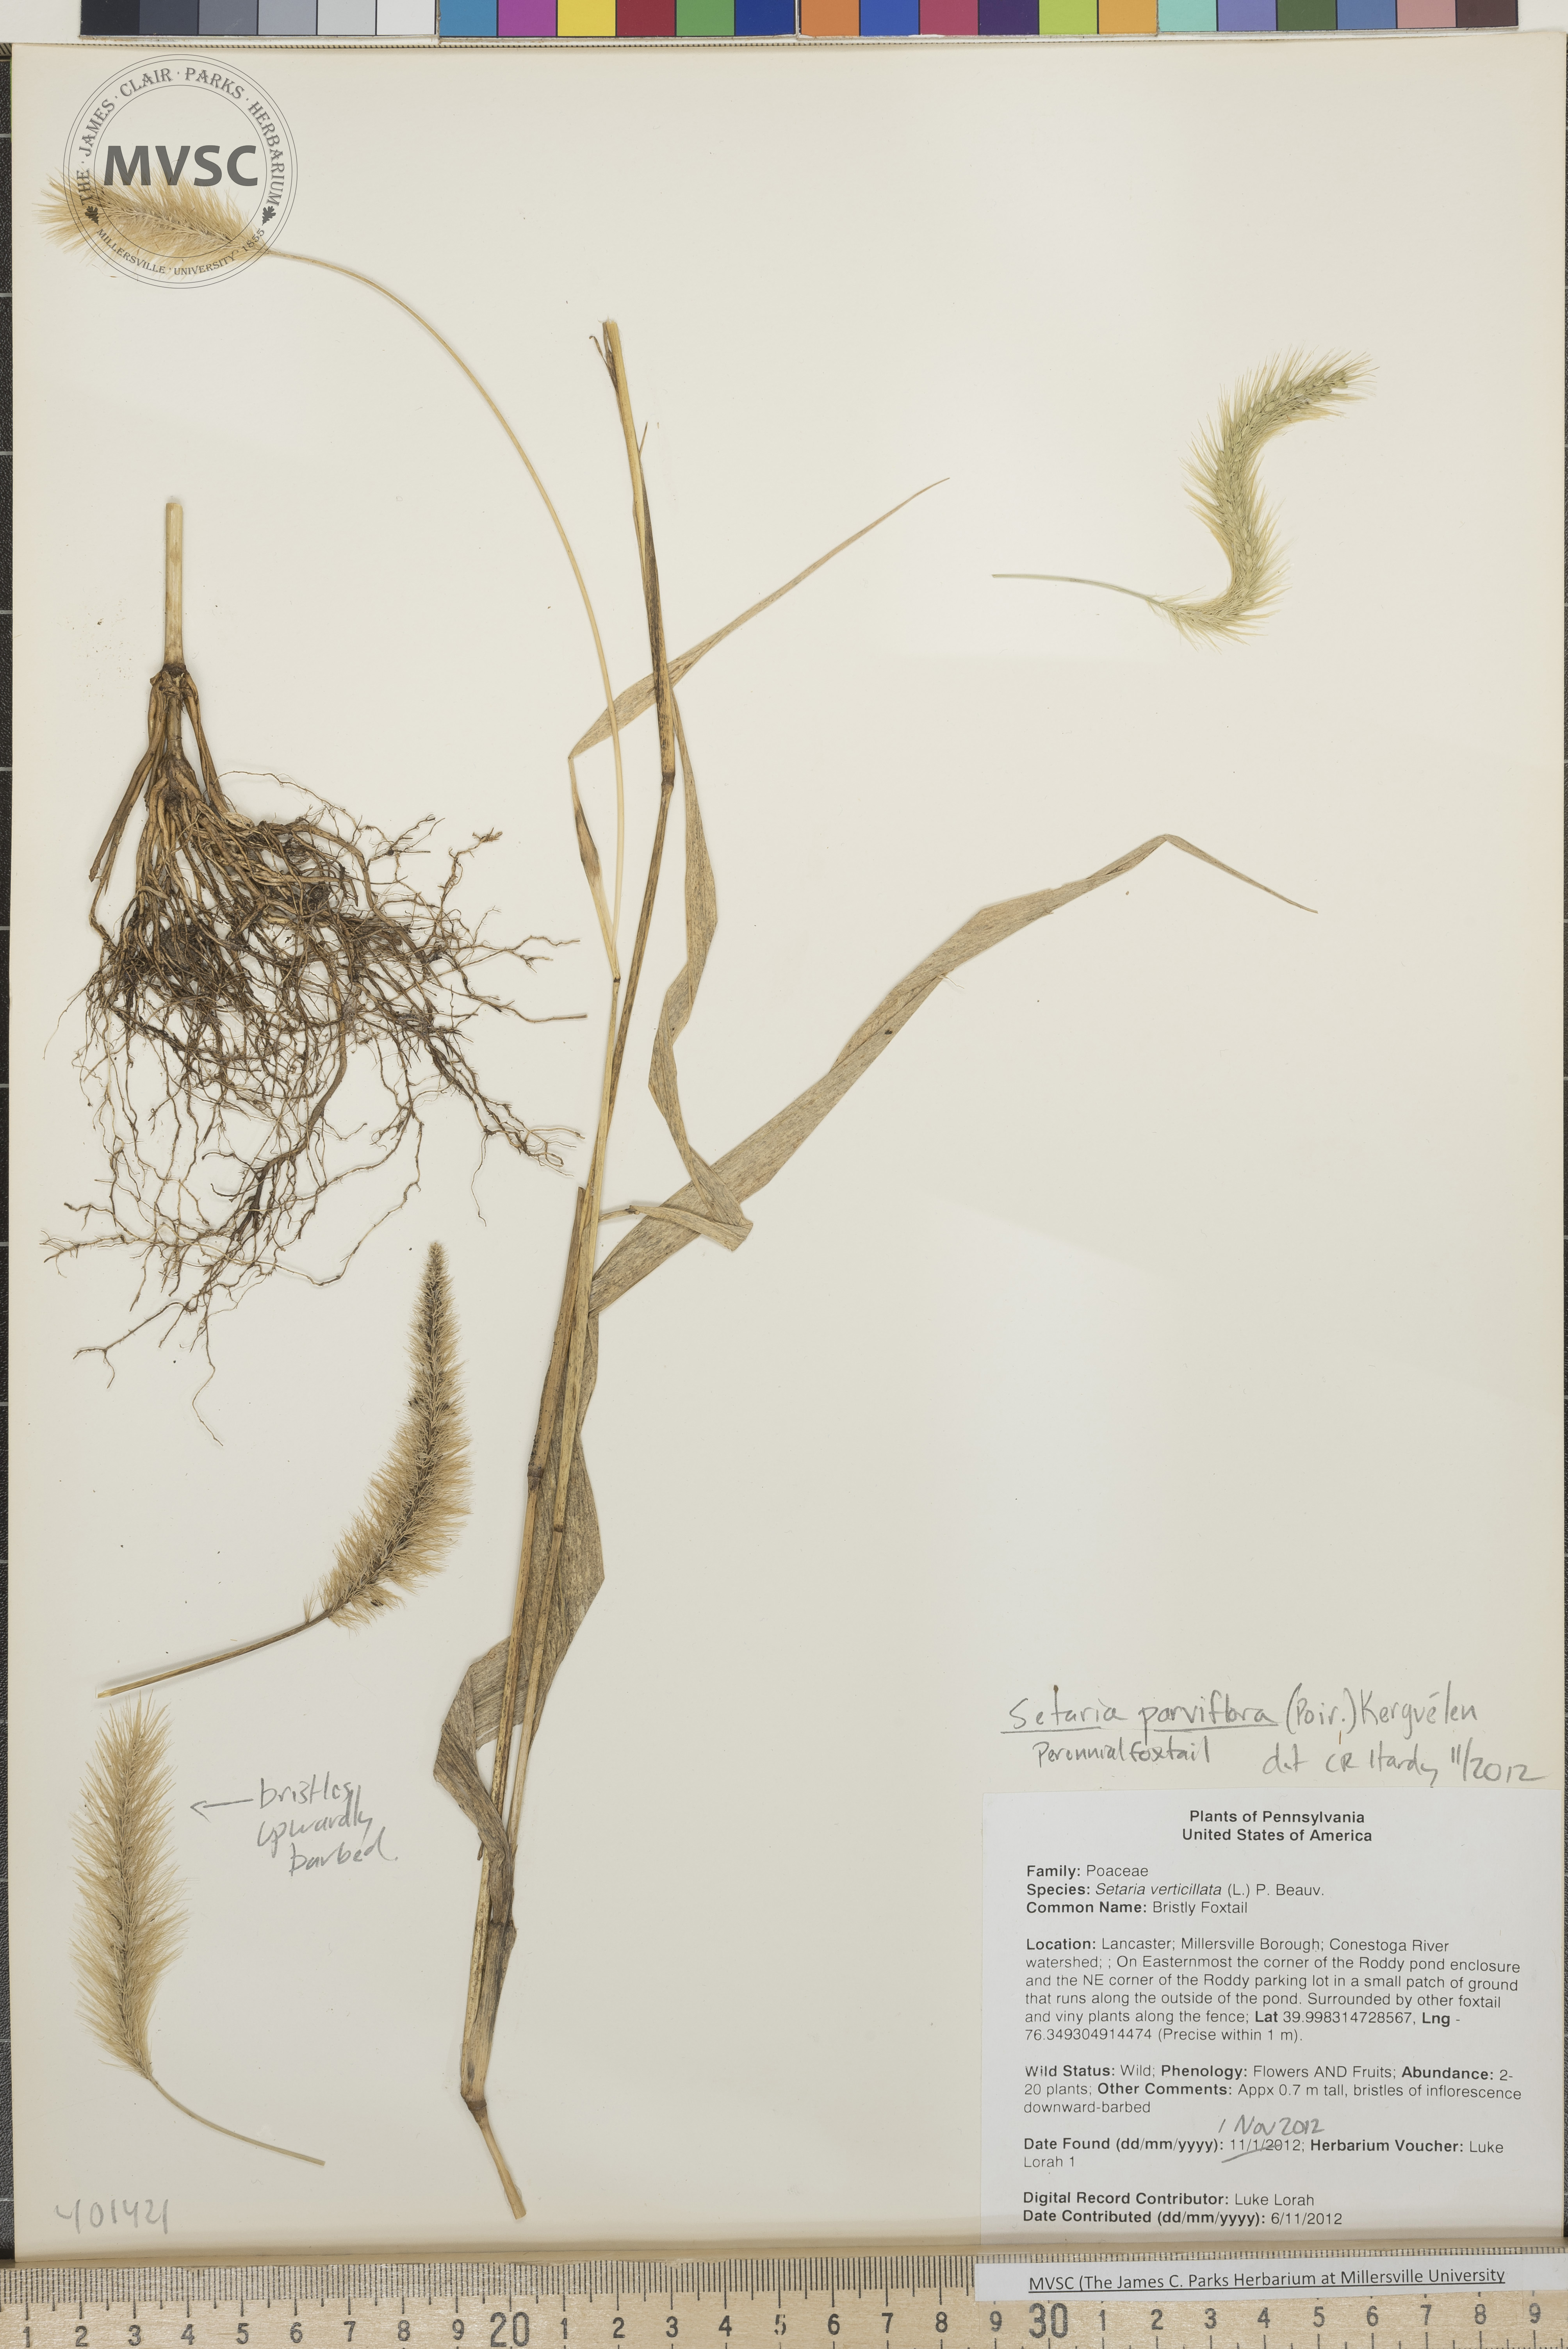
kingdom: Plantae
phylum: Tracheophyta
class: Liliopsida
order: Poales
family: Poaceae
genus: Setaria
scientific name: Setaria parviflora
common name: Perennial Foxtail
